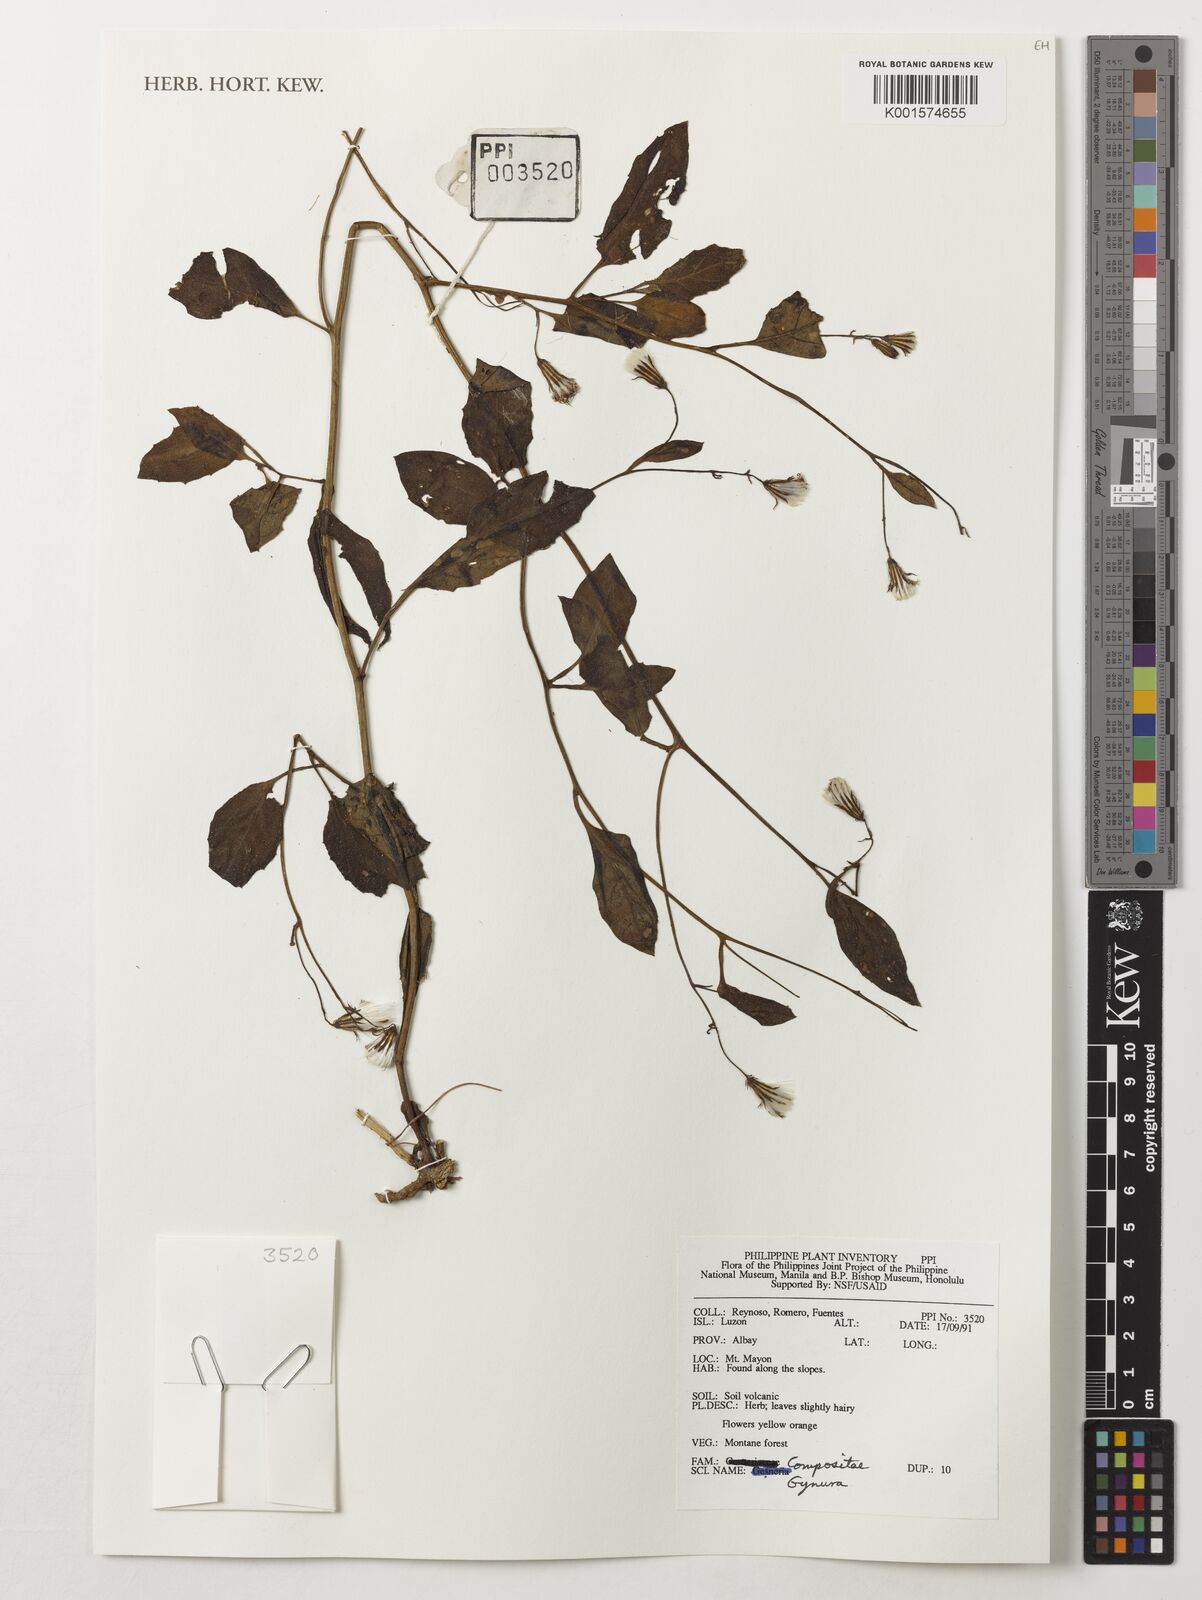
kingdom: Plantae
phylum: Tracheophyta
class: Magnoliopsida
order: Asterales
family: Asteraceae
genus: Gynura
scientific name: Gynura
